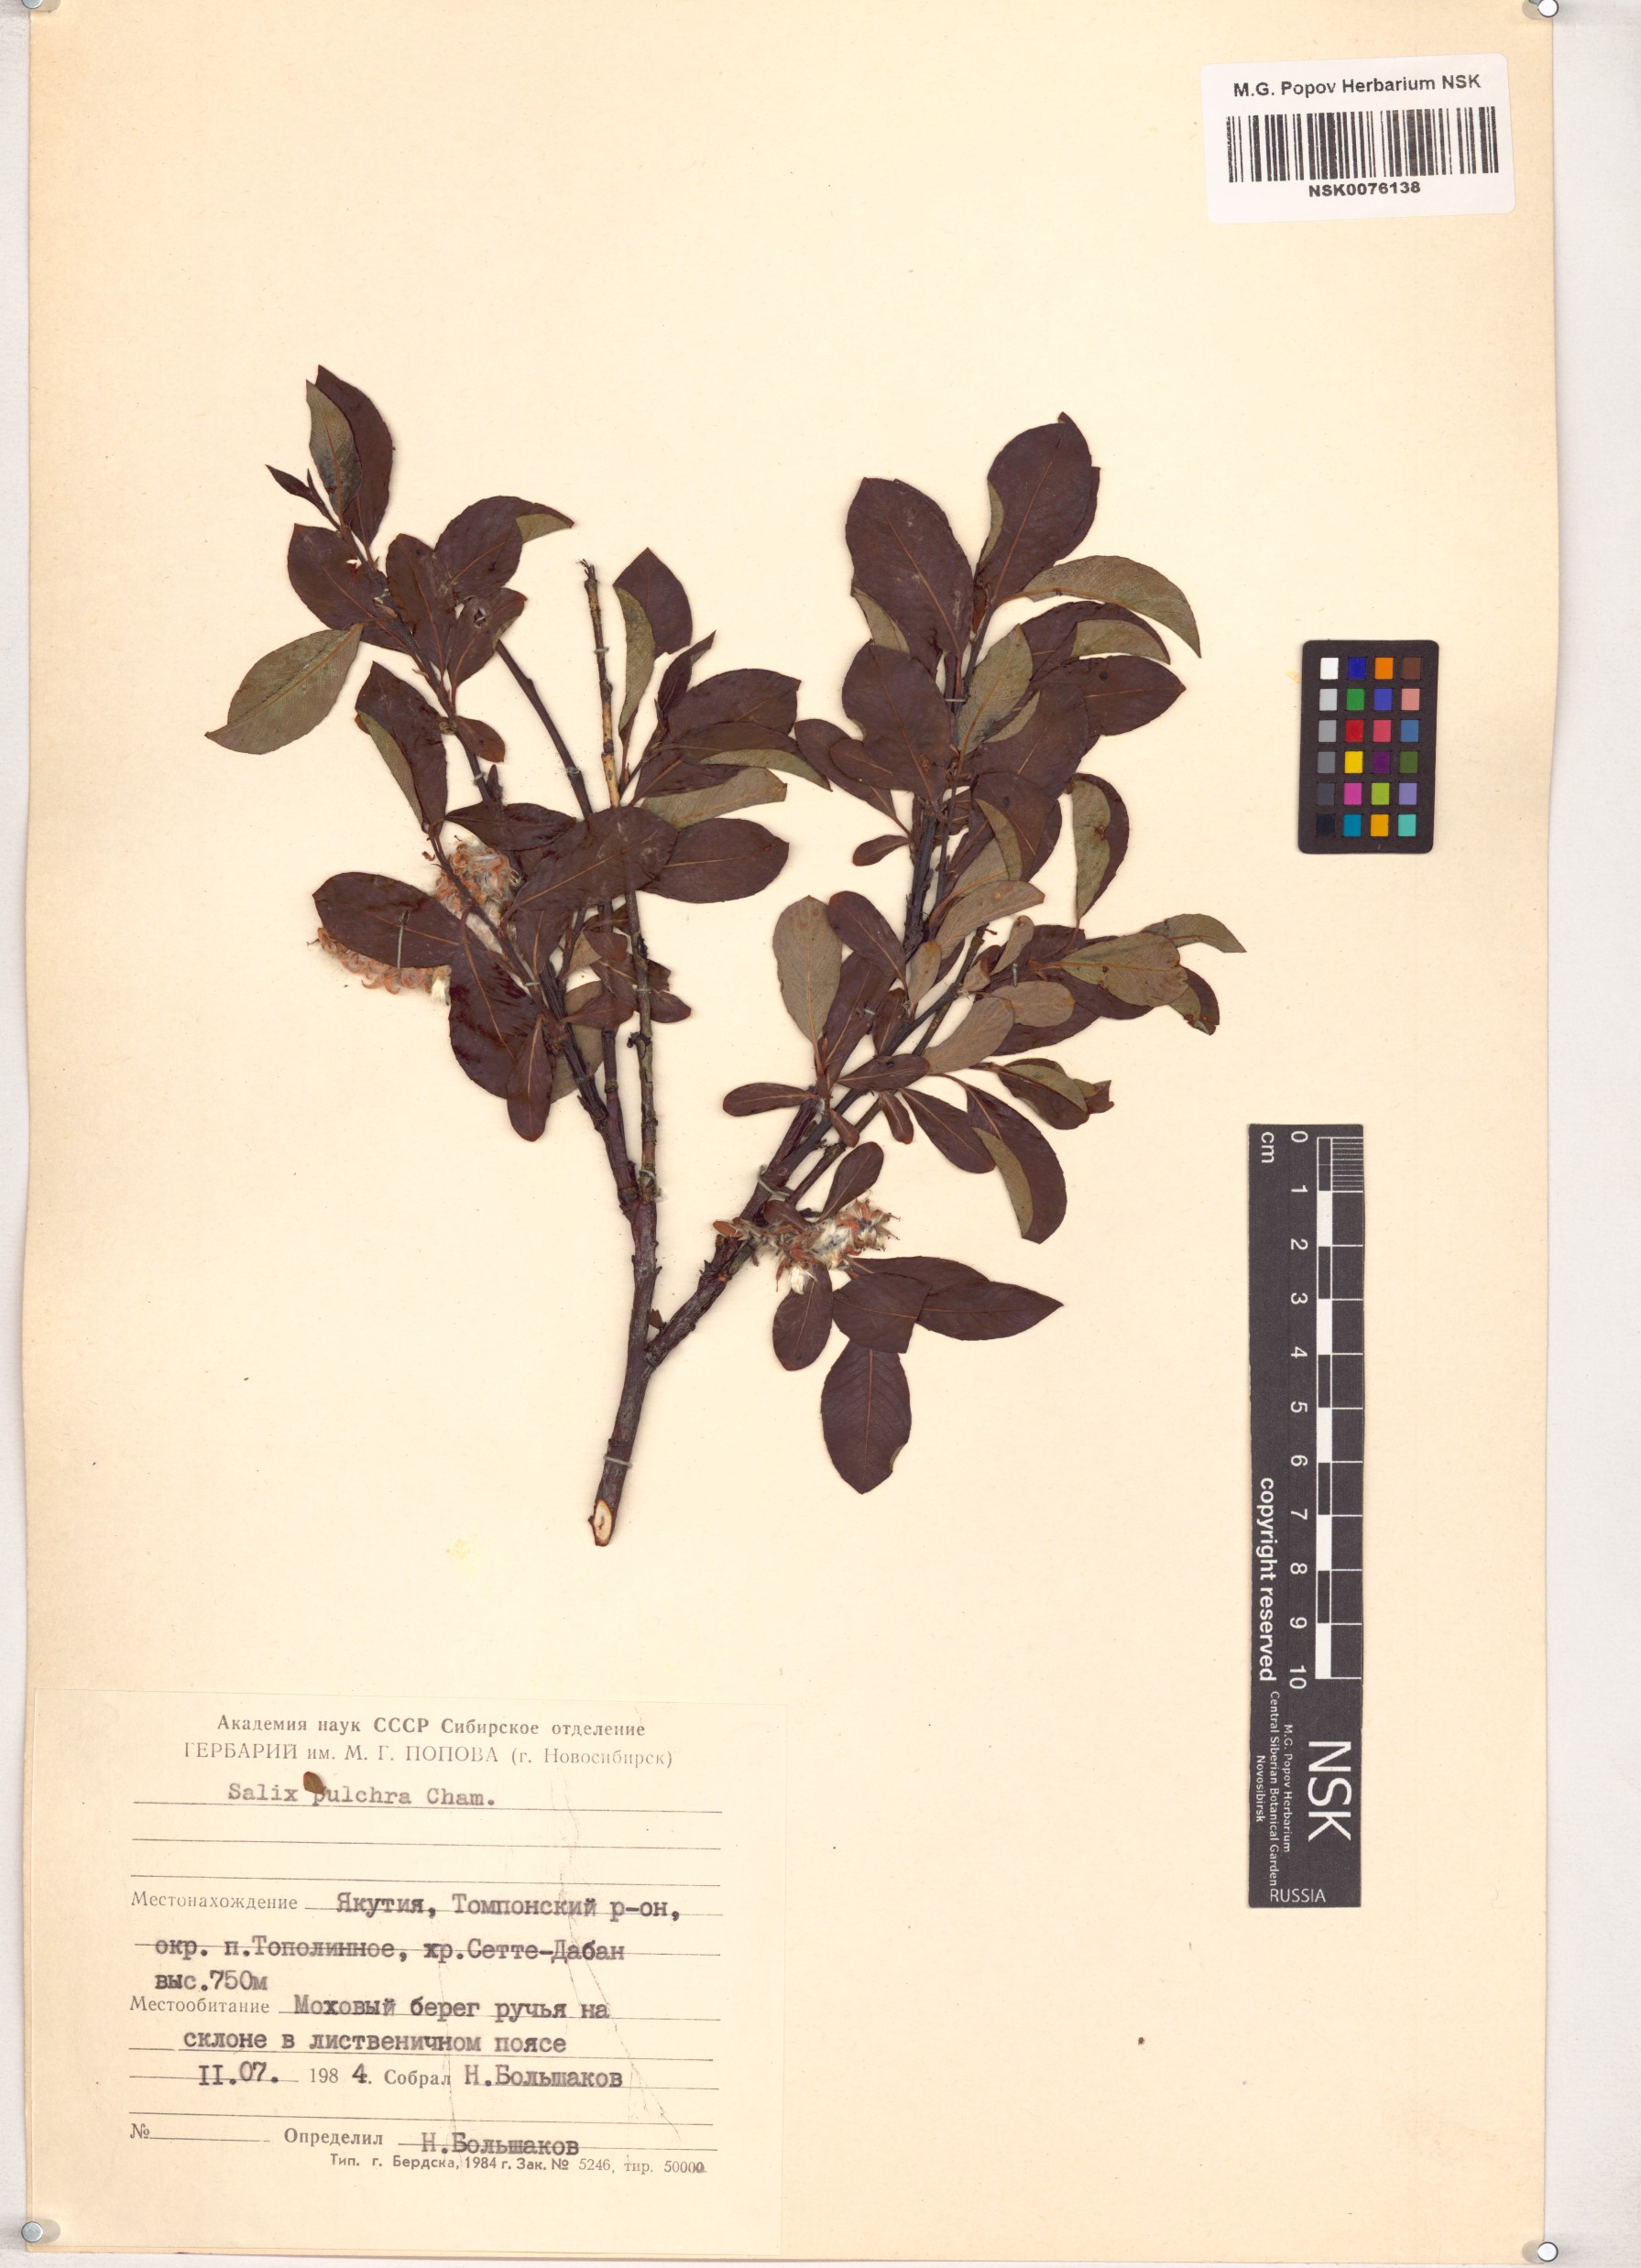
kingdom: Plantae
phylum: Tracheophyta
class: Magnoliopsida
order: Malpighiales
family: Salicaceae
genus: Salix
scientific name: Salix pulchra
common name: Diamond-leaved willow
